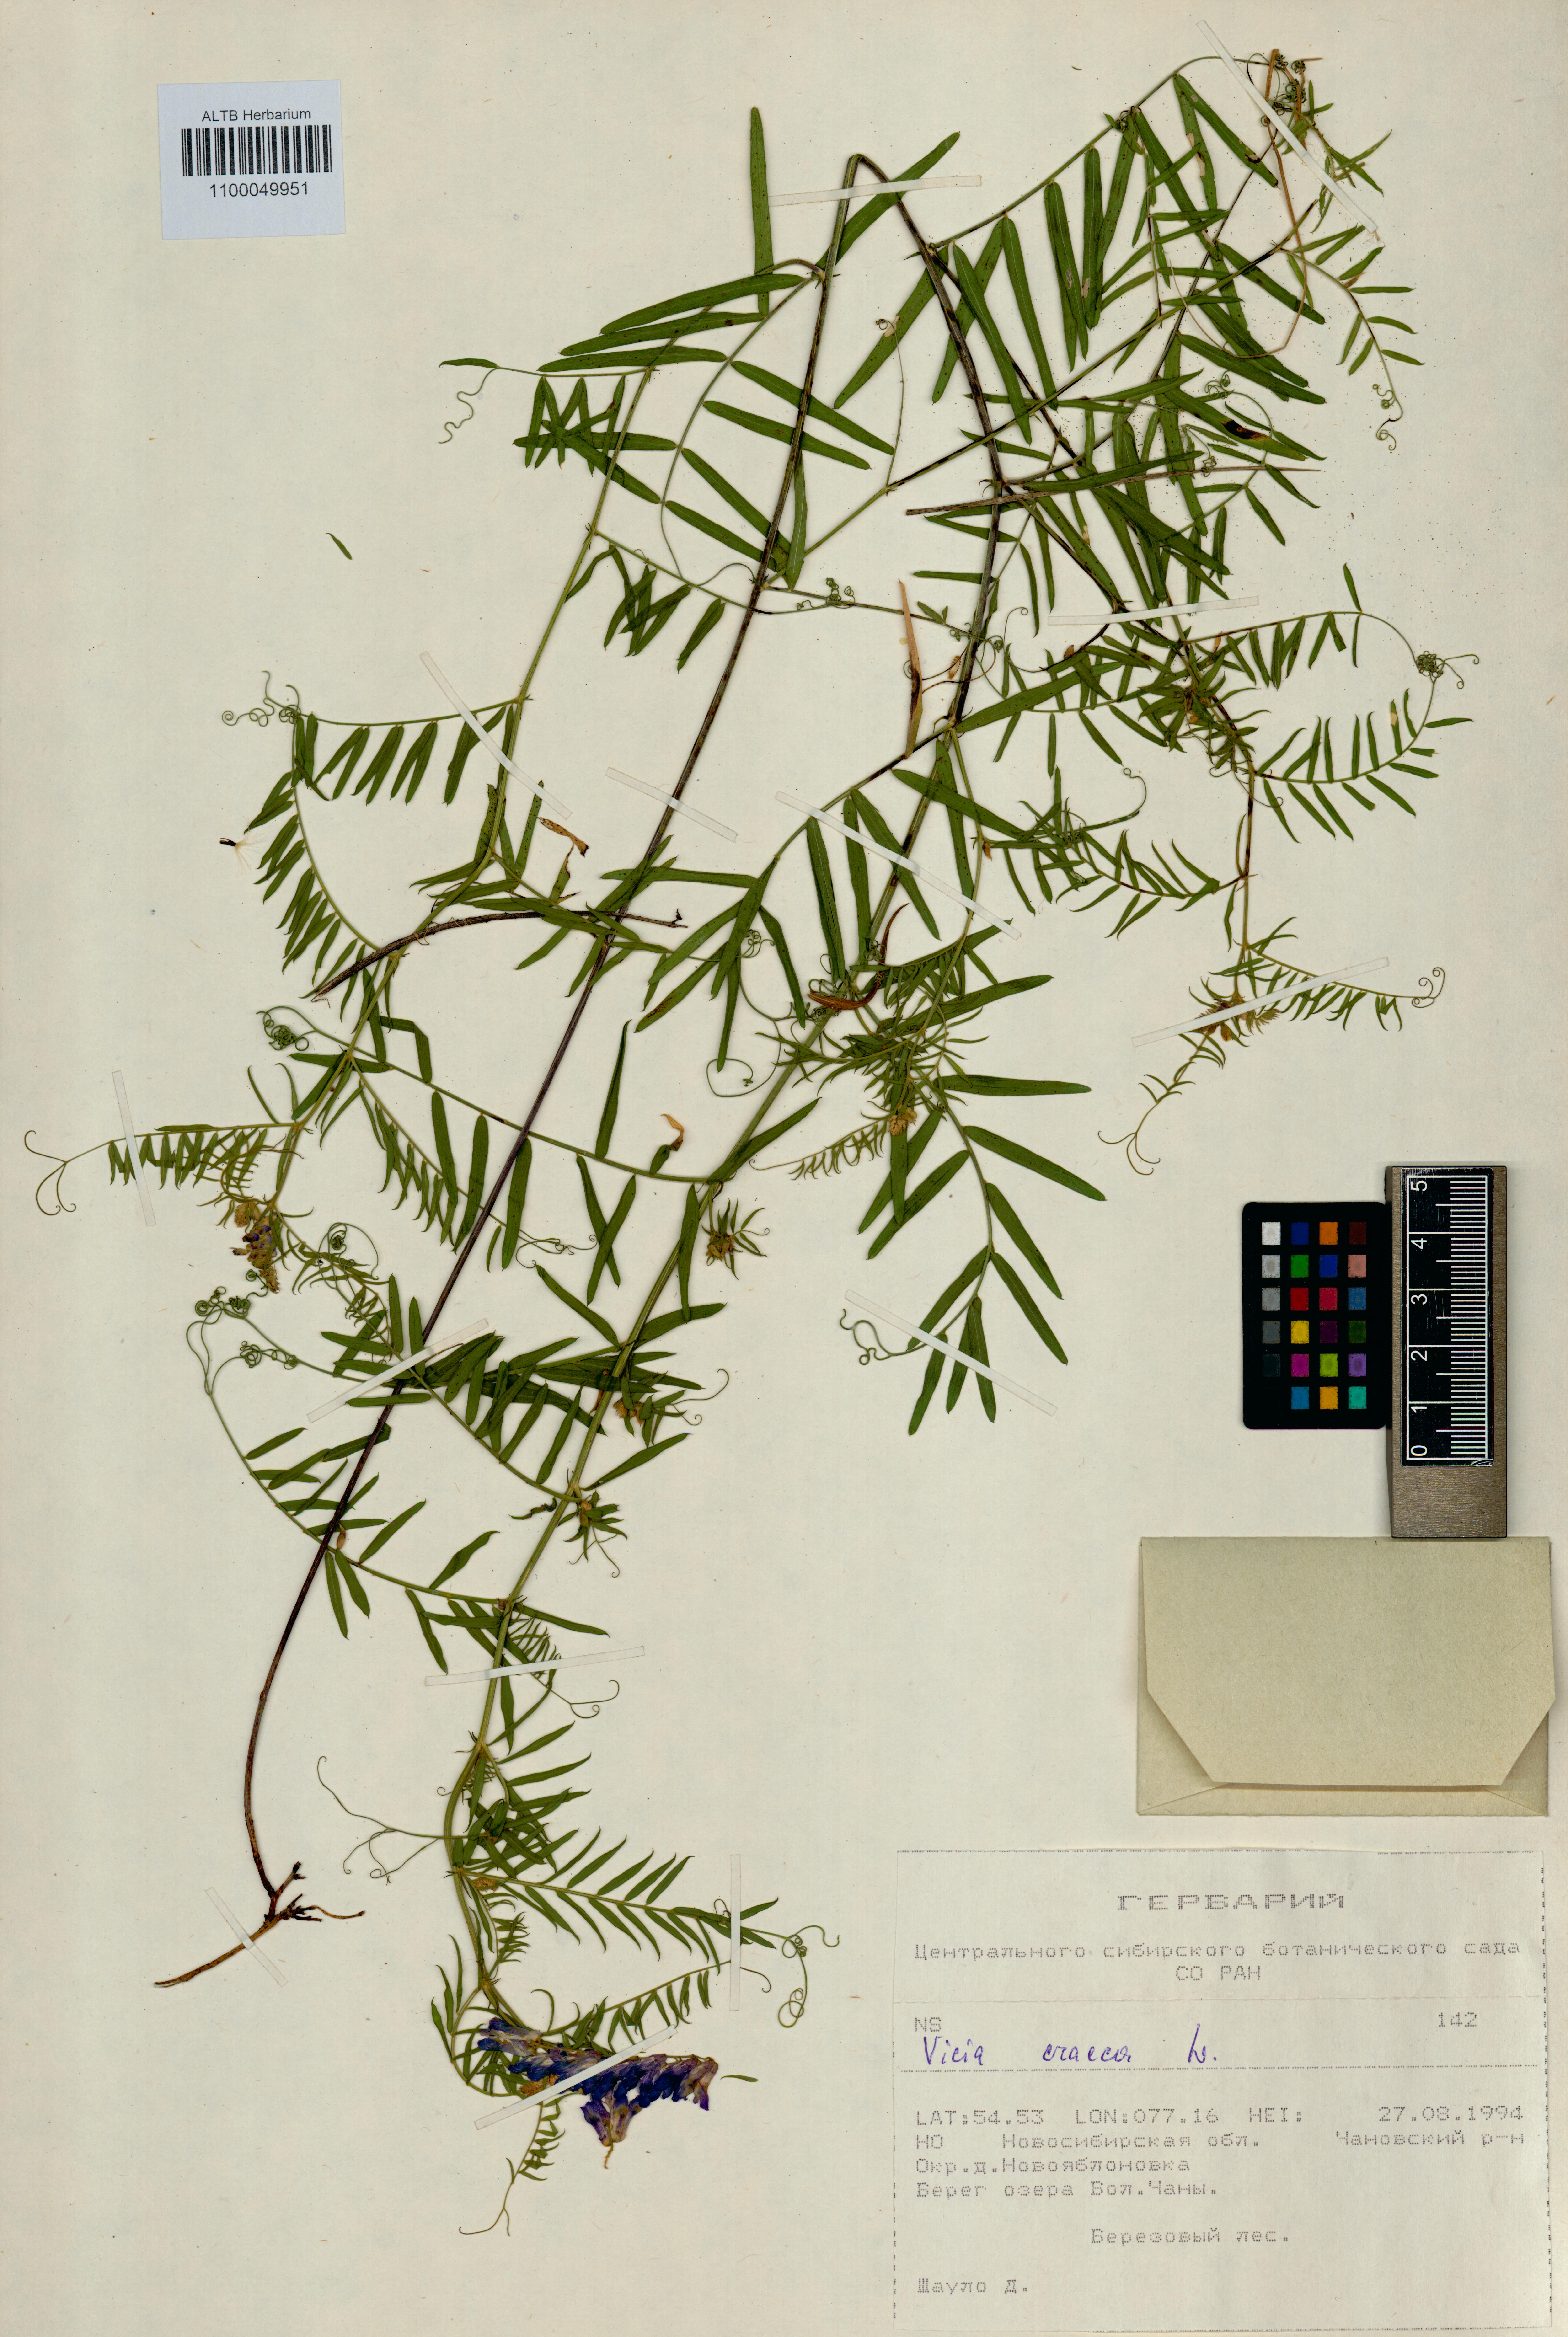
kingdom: Plantae
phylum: Tracheophyta
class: Magnoliopsida
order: Fabales
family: Fabaceae
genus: Vicia
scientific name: Vicia cracca
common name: Bird vetch
